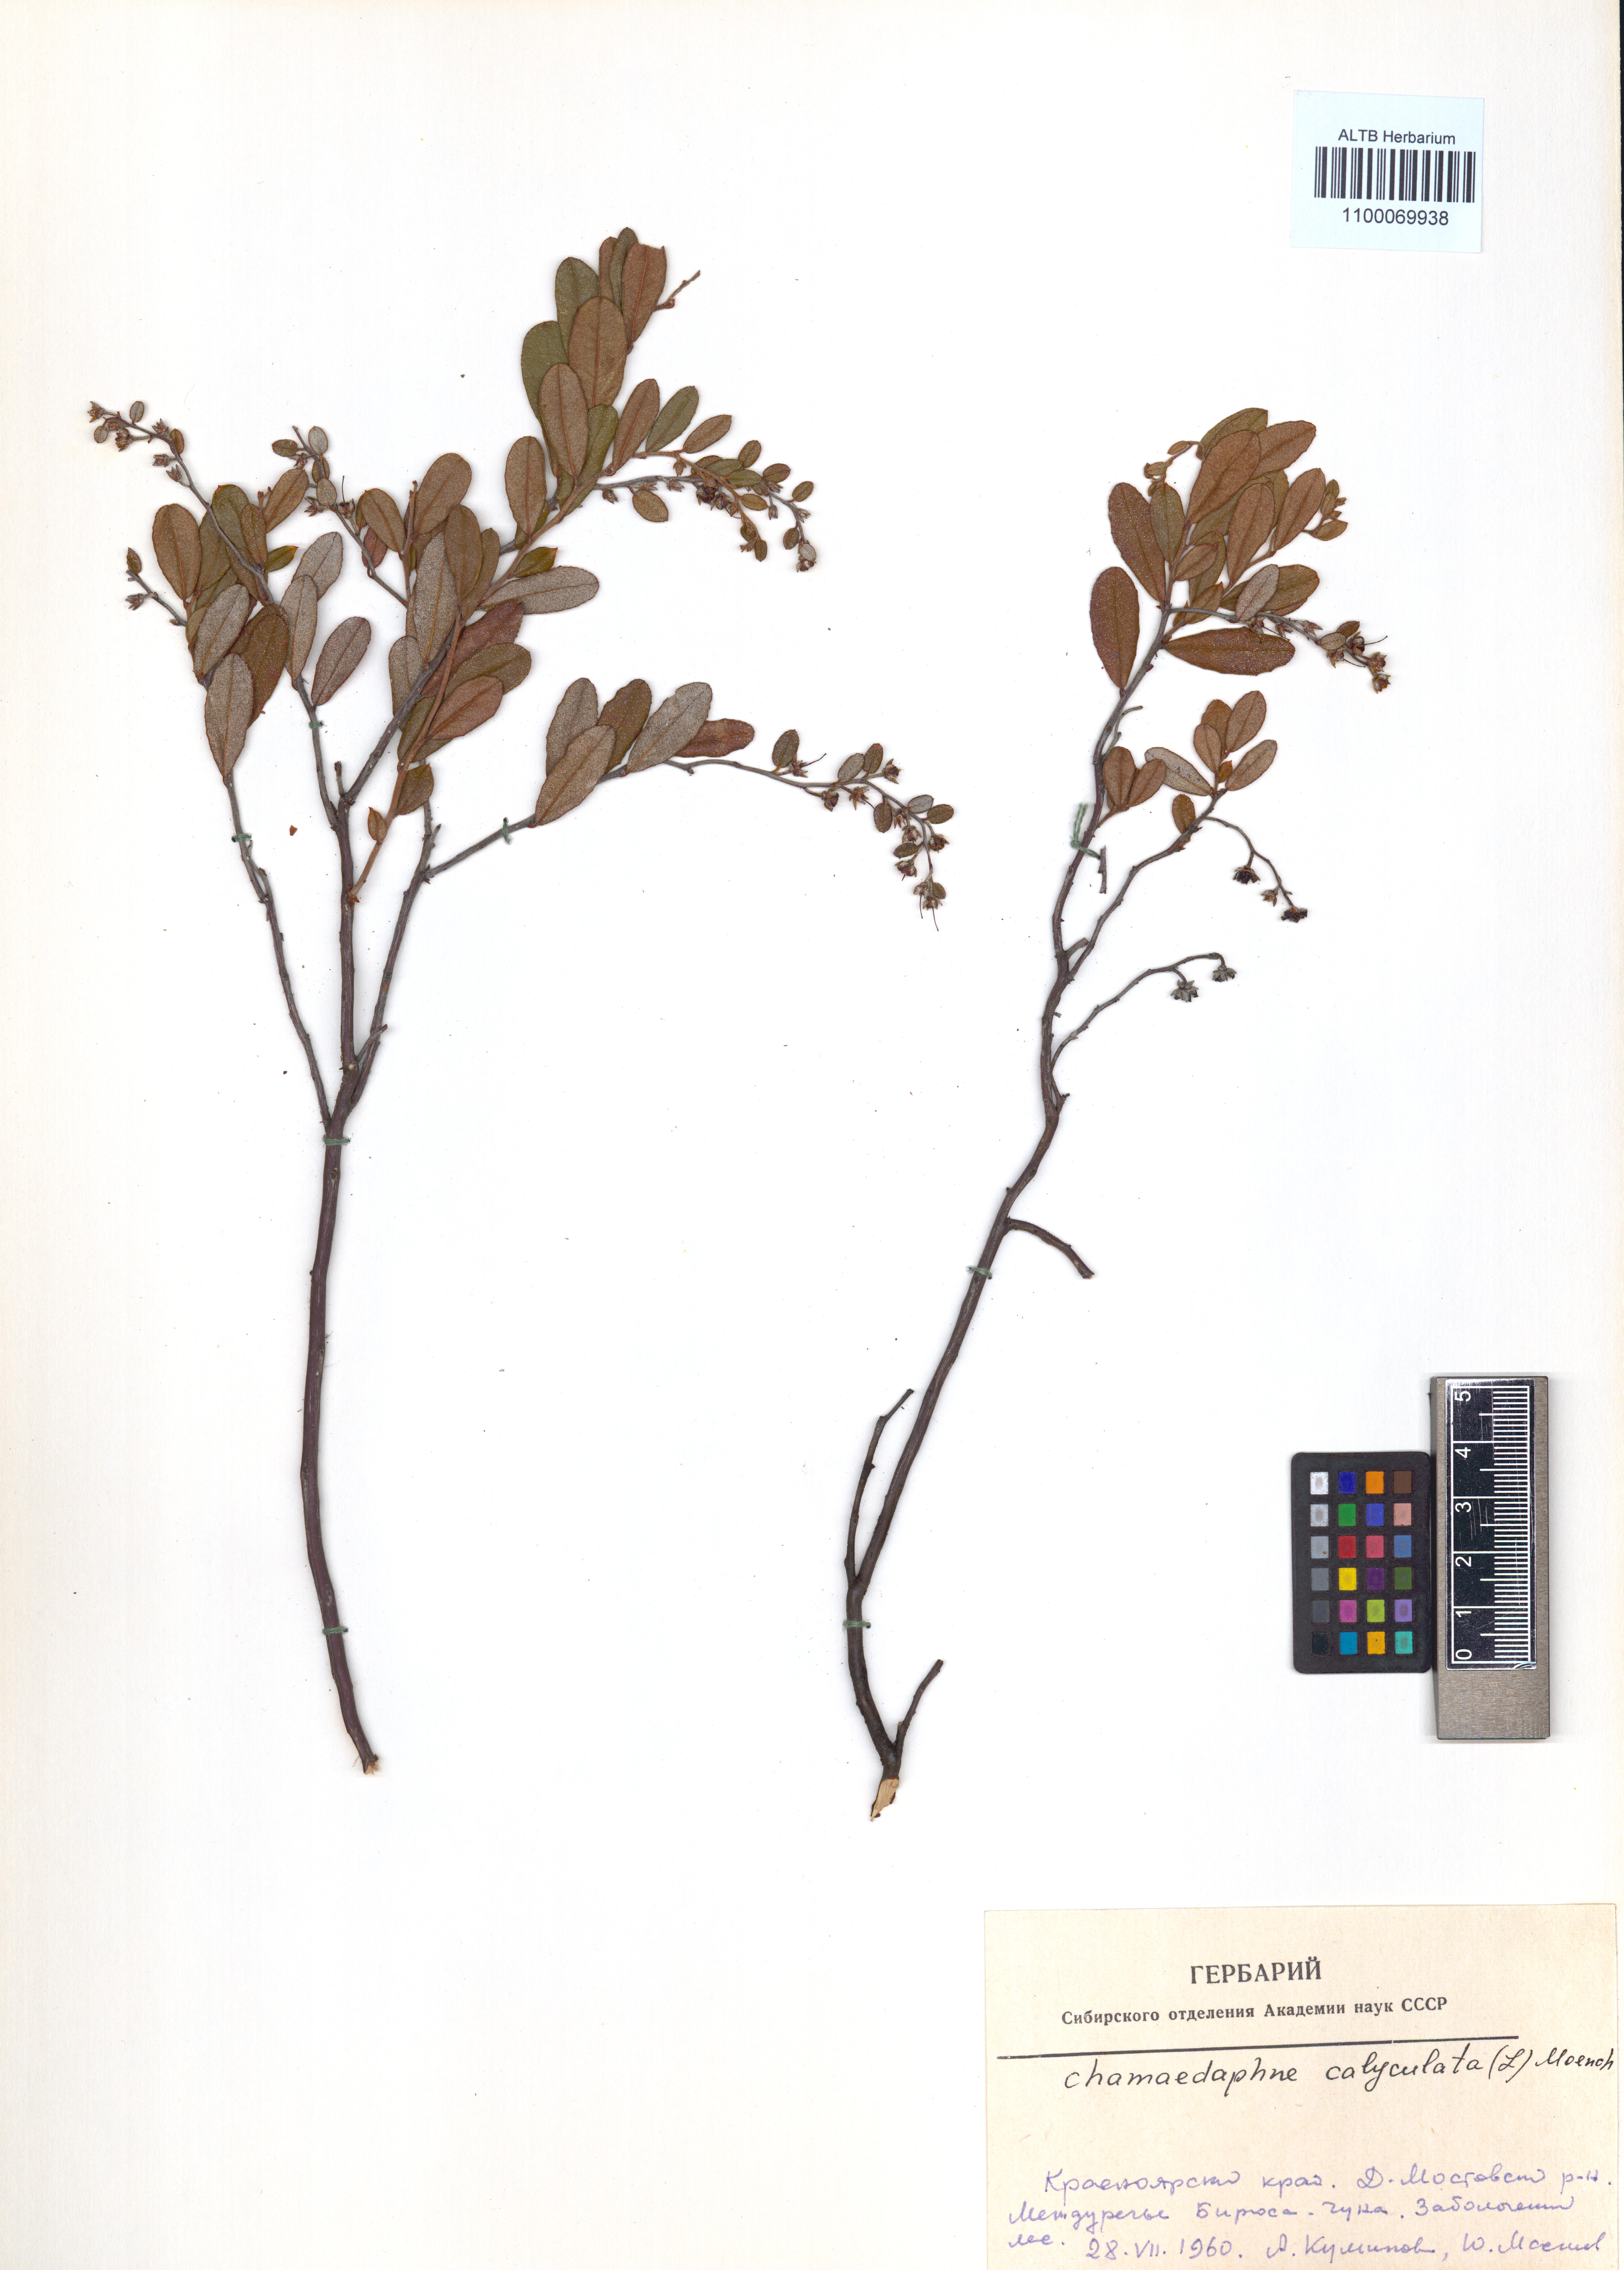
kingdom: Plantae
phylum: Tracheophyta
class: Magnoliopsida
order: Ericales
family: Ericaceae
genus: Chamaedaphne
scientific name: Chamaedaphne calyculata
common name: Leatherleaf
